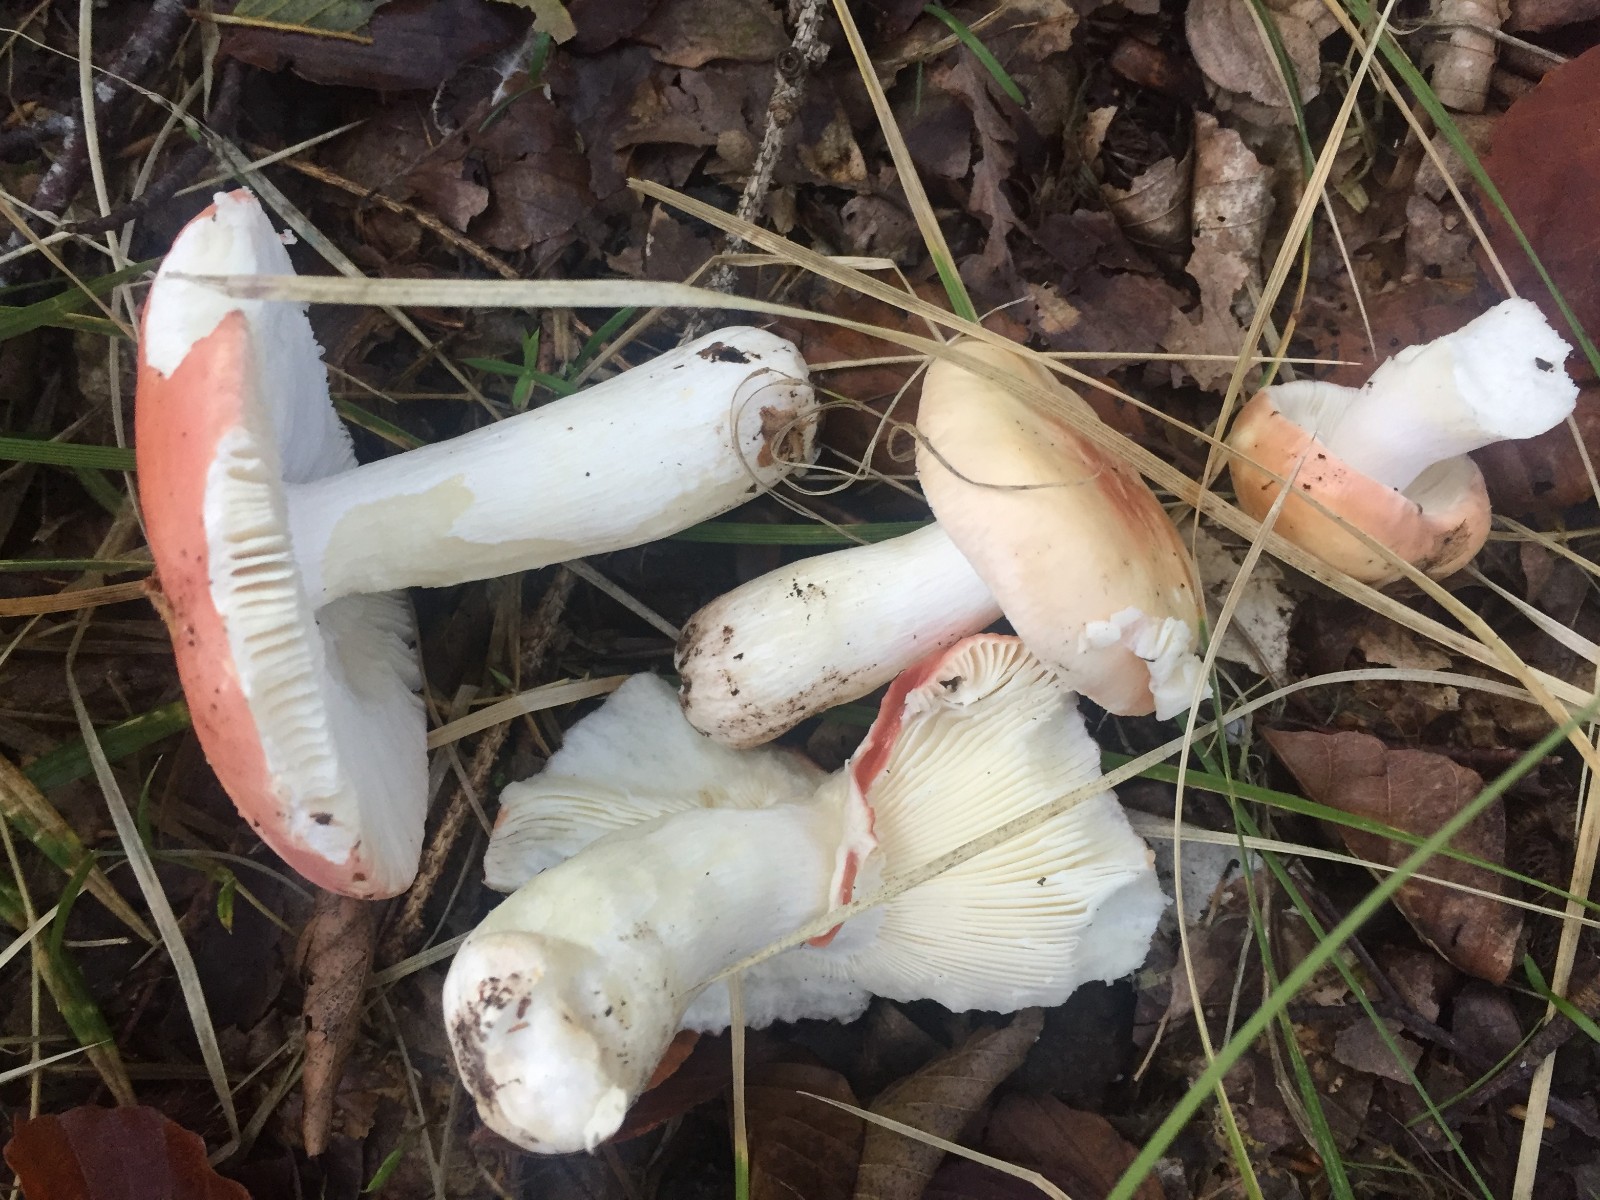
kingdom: Fungi
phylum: Basidiomycota
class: Agaricomycetes
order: Russulales
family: Russulaceae
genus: Russula
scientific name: Russula aurora
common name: rosa skørhat
